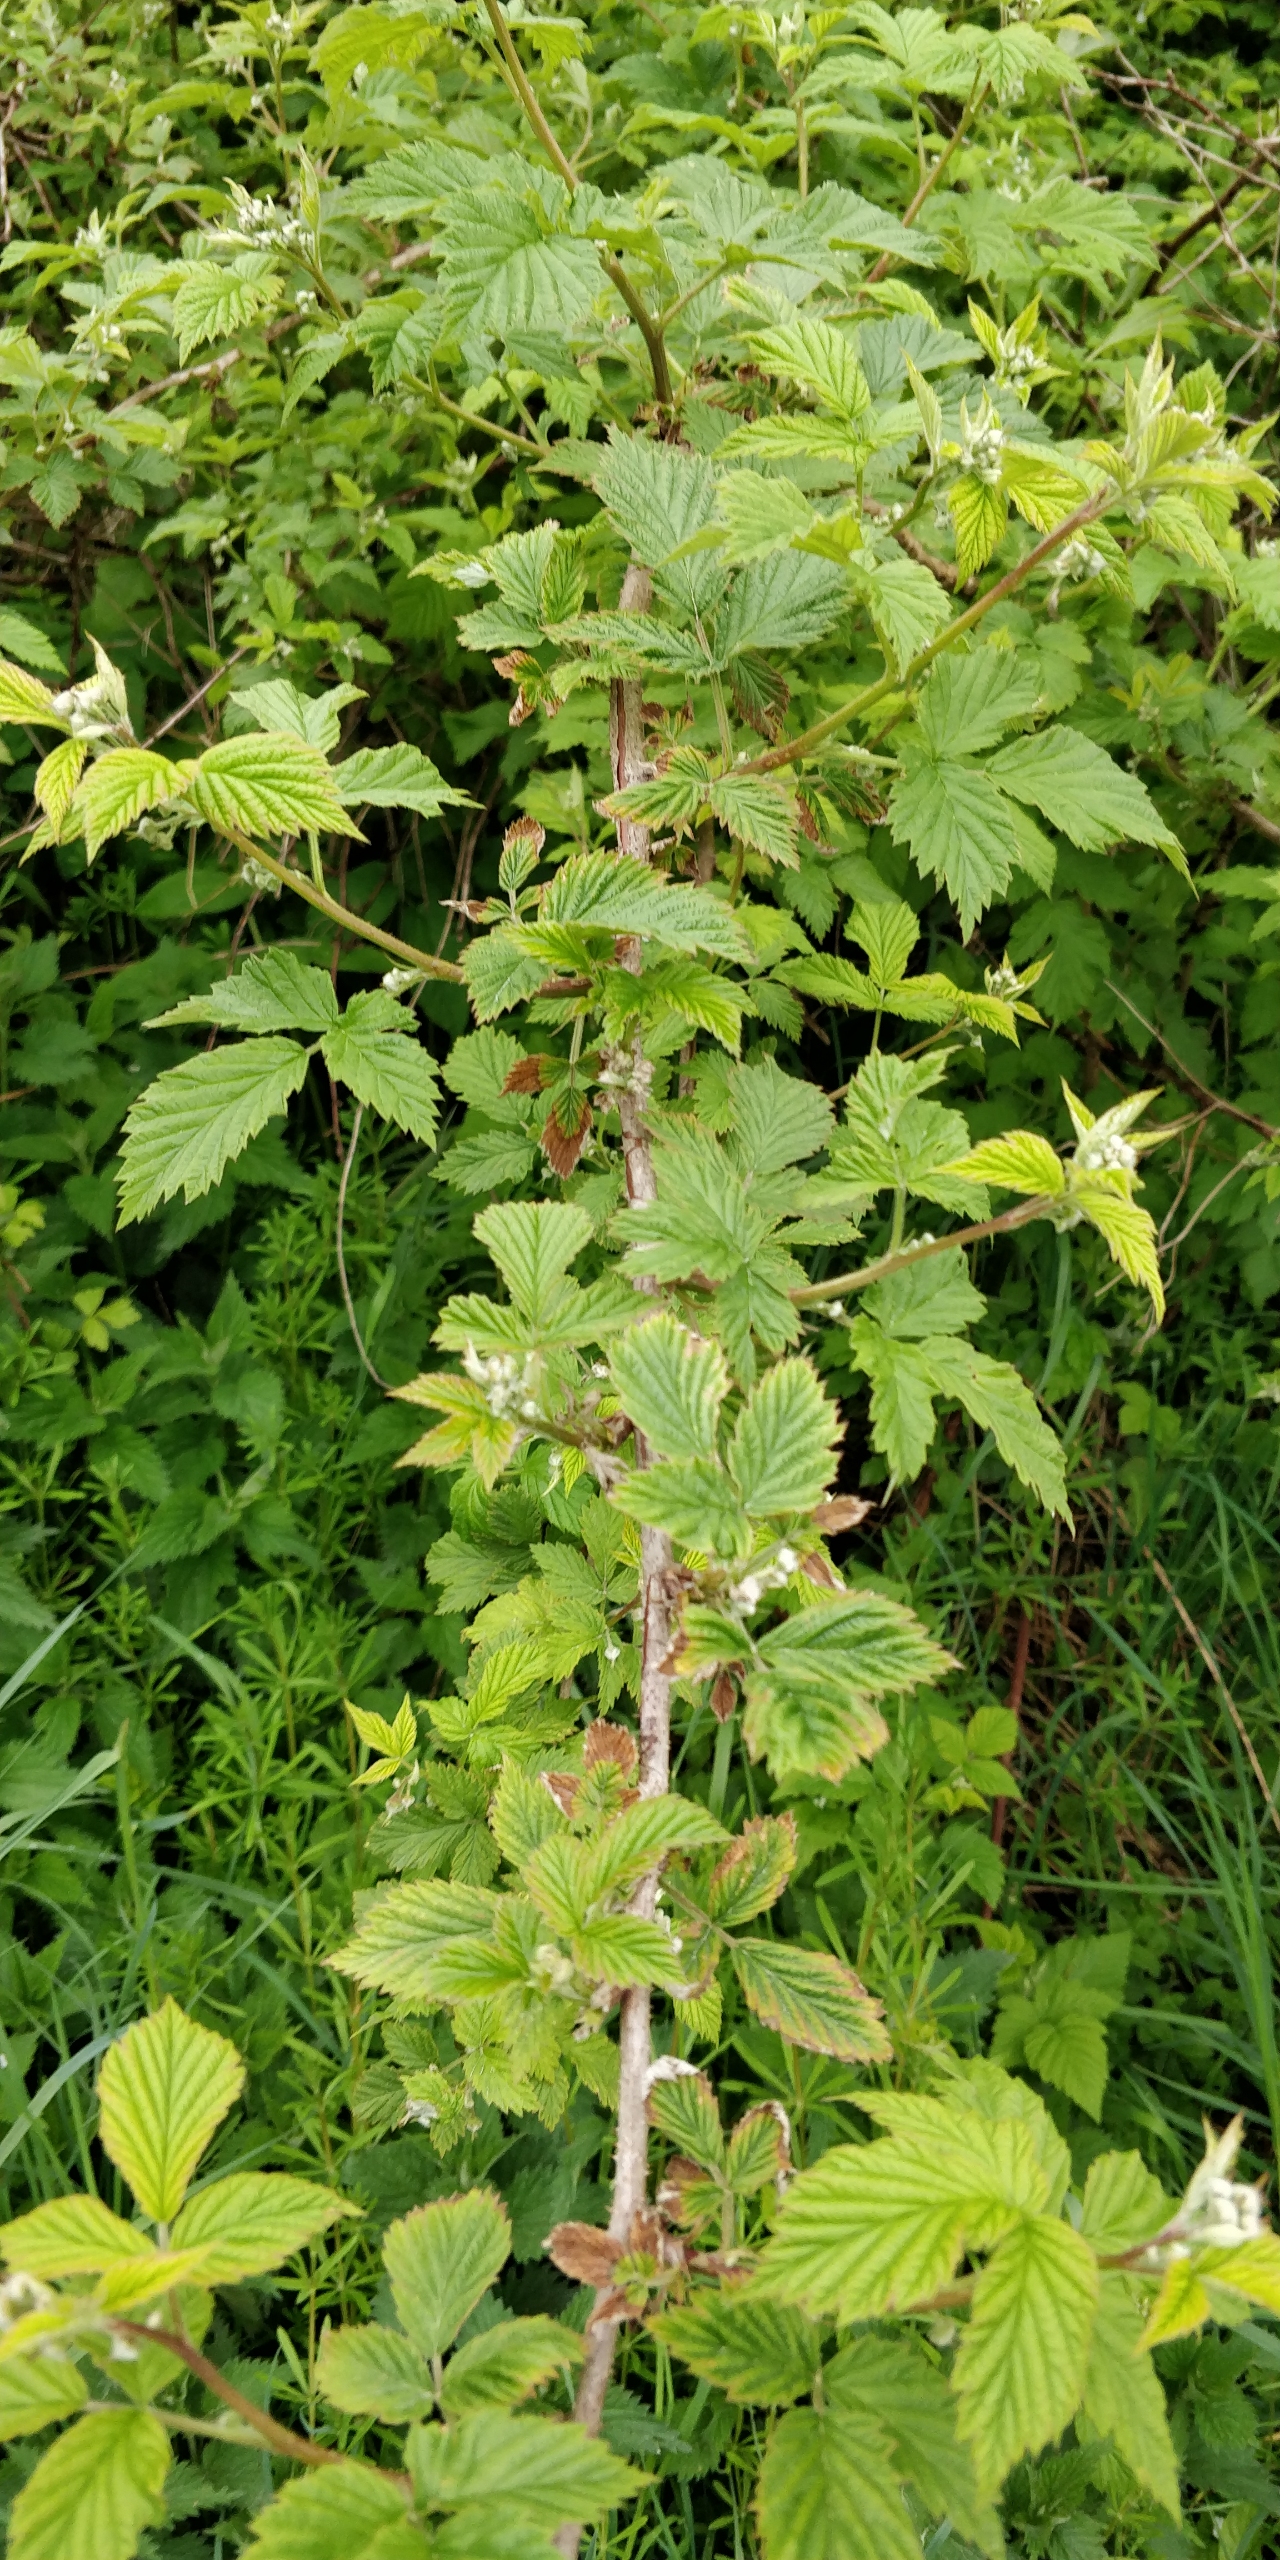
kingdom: Plantae
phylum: Tracheophyta
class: Magnoliopsida
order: Rosales
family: Rosaceae
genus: Rubus
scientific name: Rubus idaeus
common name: Hindbær
